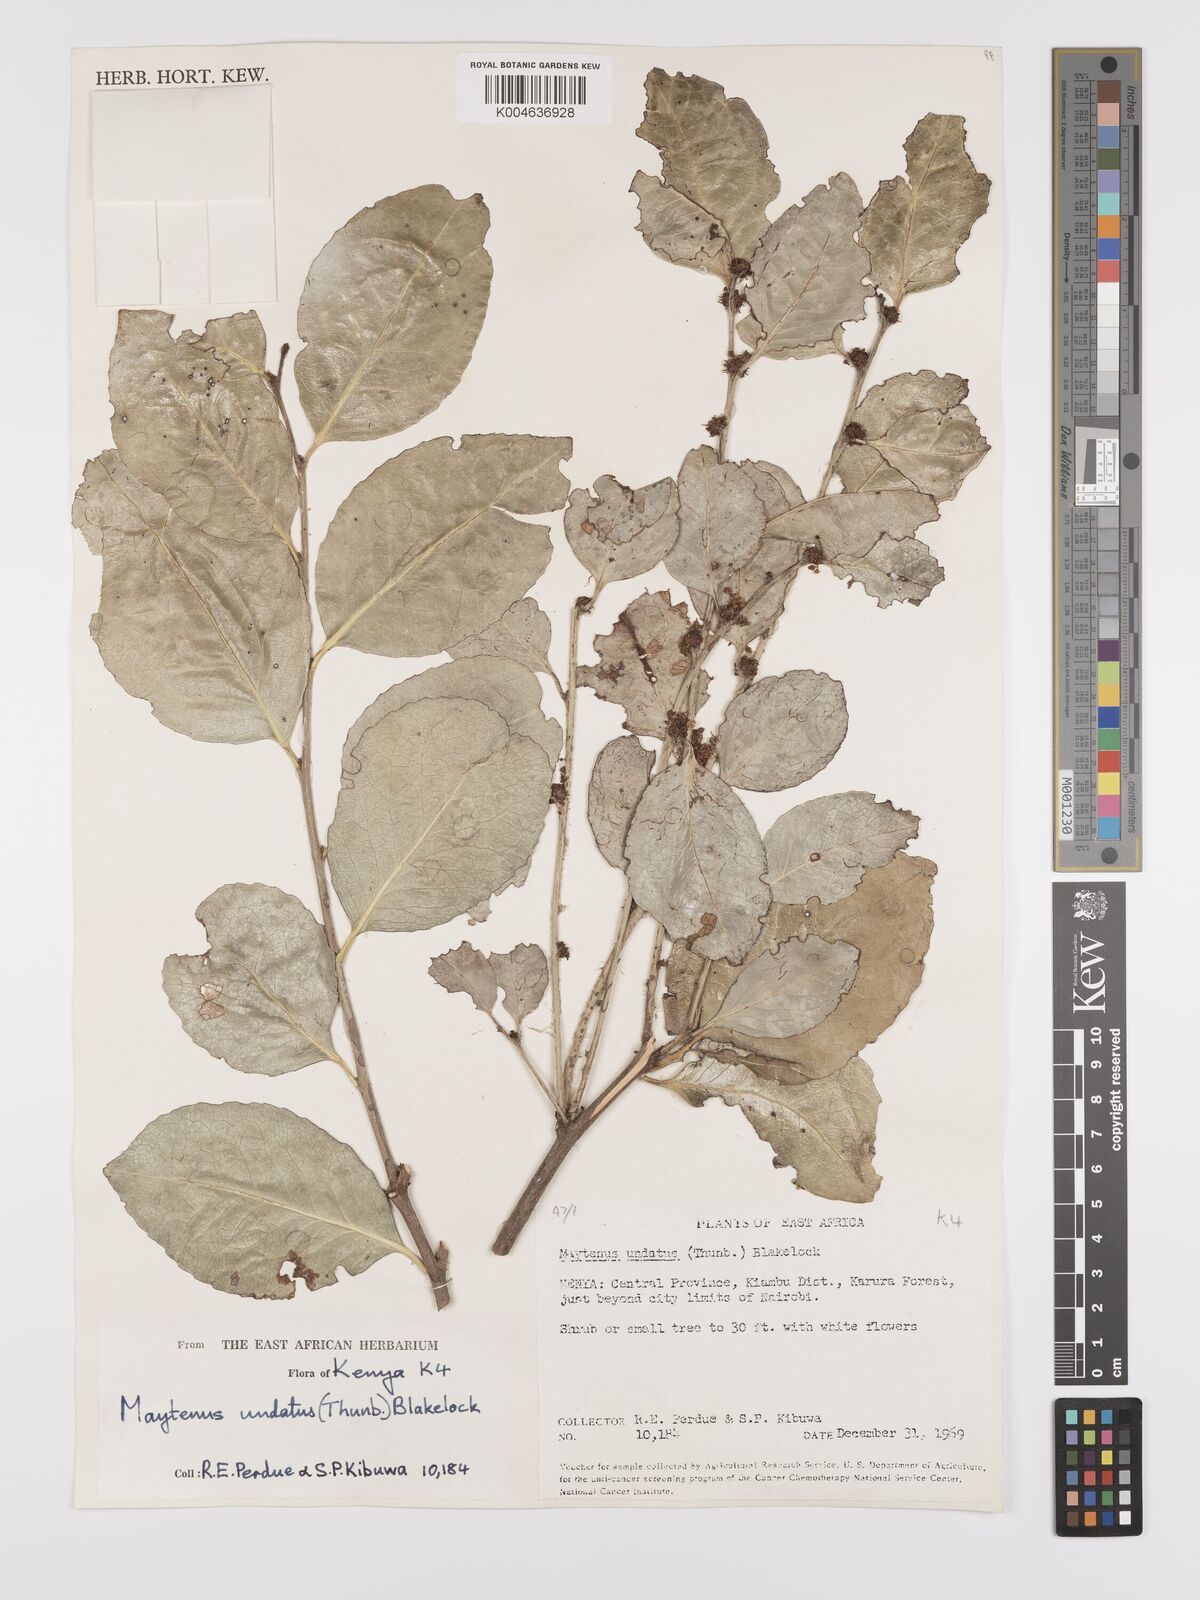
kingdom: Plantae
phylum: Tracheophyta
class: Magnoliopsida
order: Celastrales
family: Celastraceae
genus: Gymnosporia
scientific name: Gymnosporia undata
